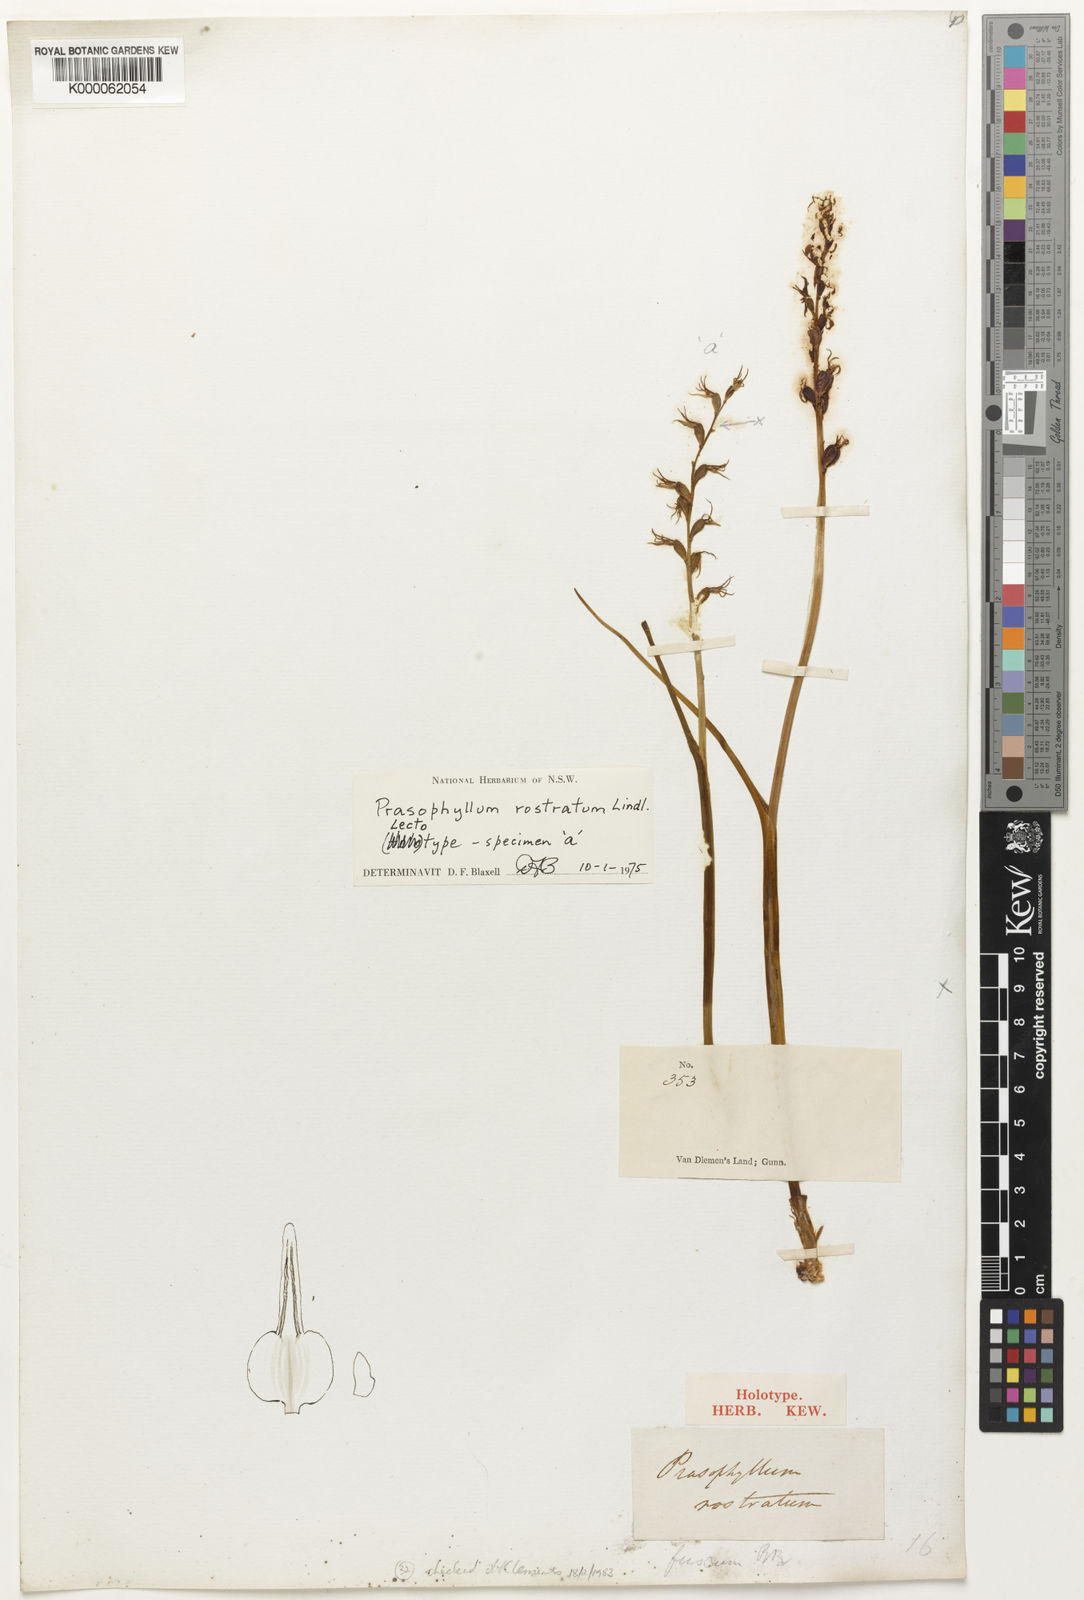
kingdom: Plantae
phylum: Tracheophyta
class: Liliopsida
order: Asparagales
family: Orchidaceae
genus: Prasophyllum
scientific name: Prasophyllum rostratum
